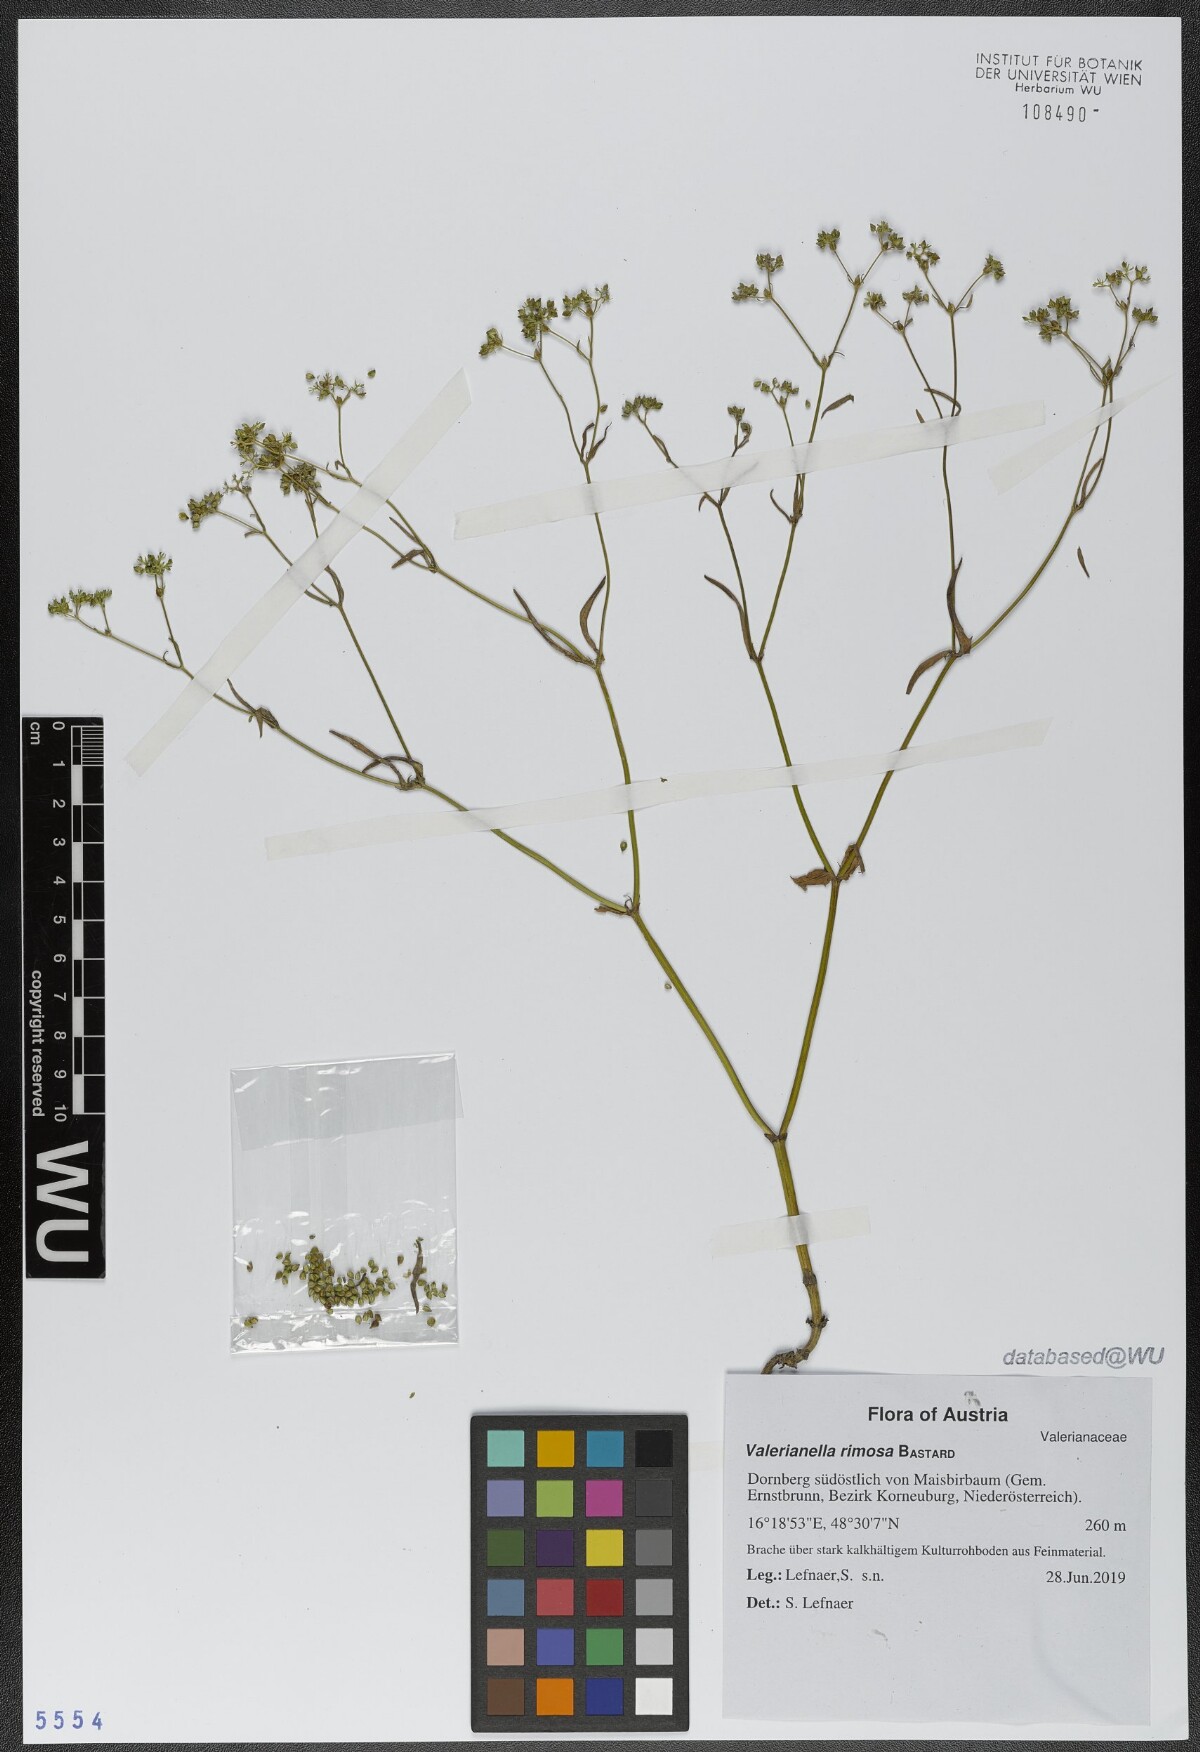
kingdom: Plantae
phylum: Tracheophyta
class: Magnoliopsida
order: Dipsacales
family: Caprifoliaceae
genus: Valerianella
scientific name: Valerianella rimosa
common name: Broad-fruited cornsalad
